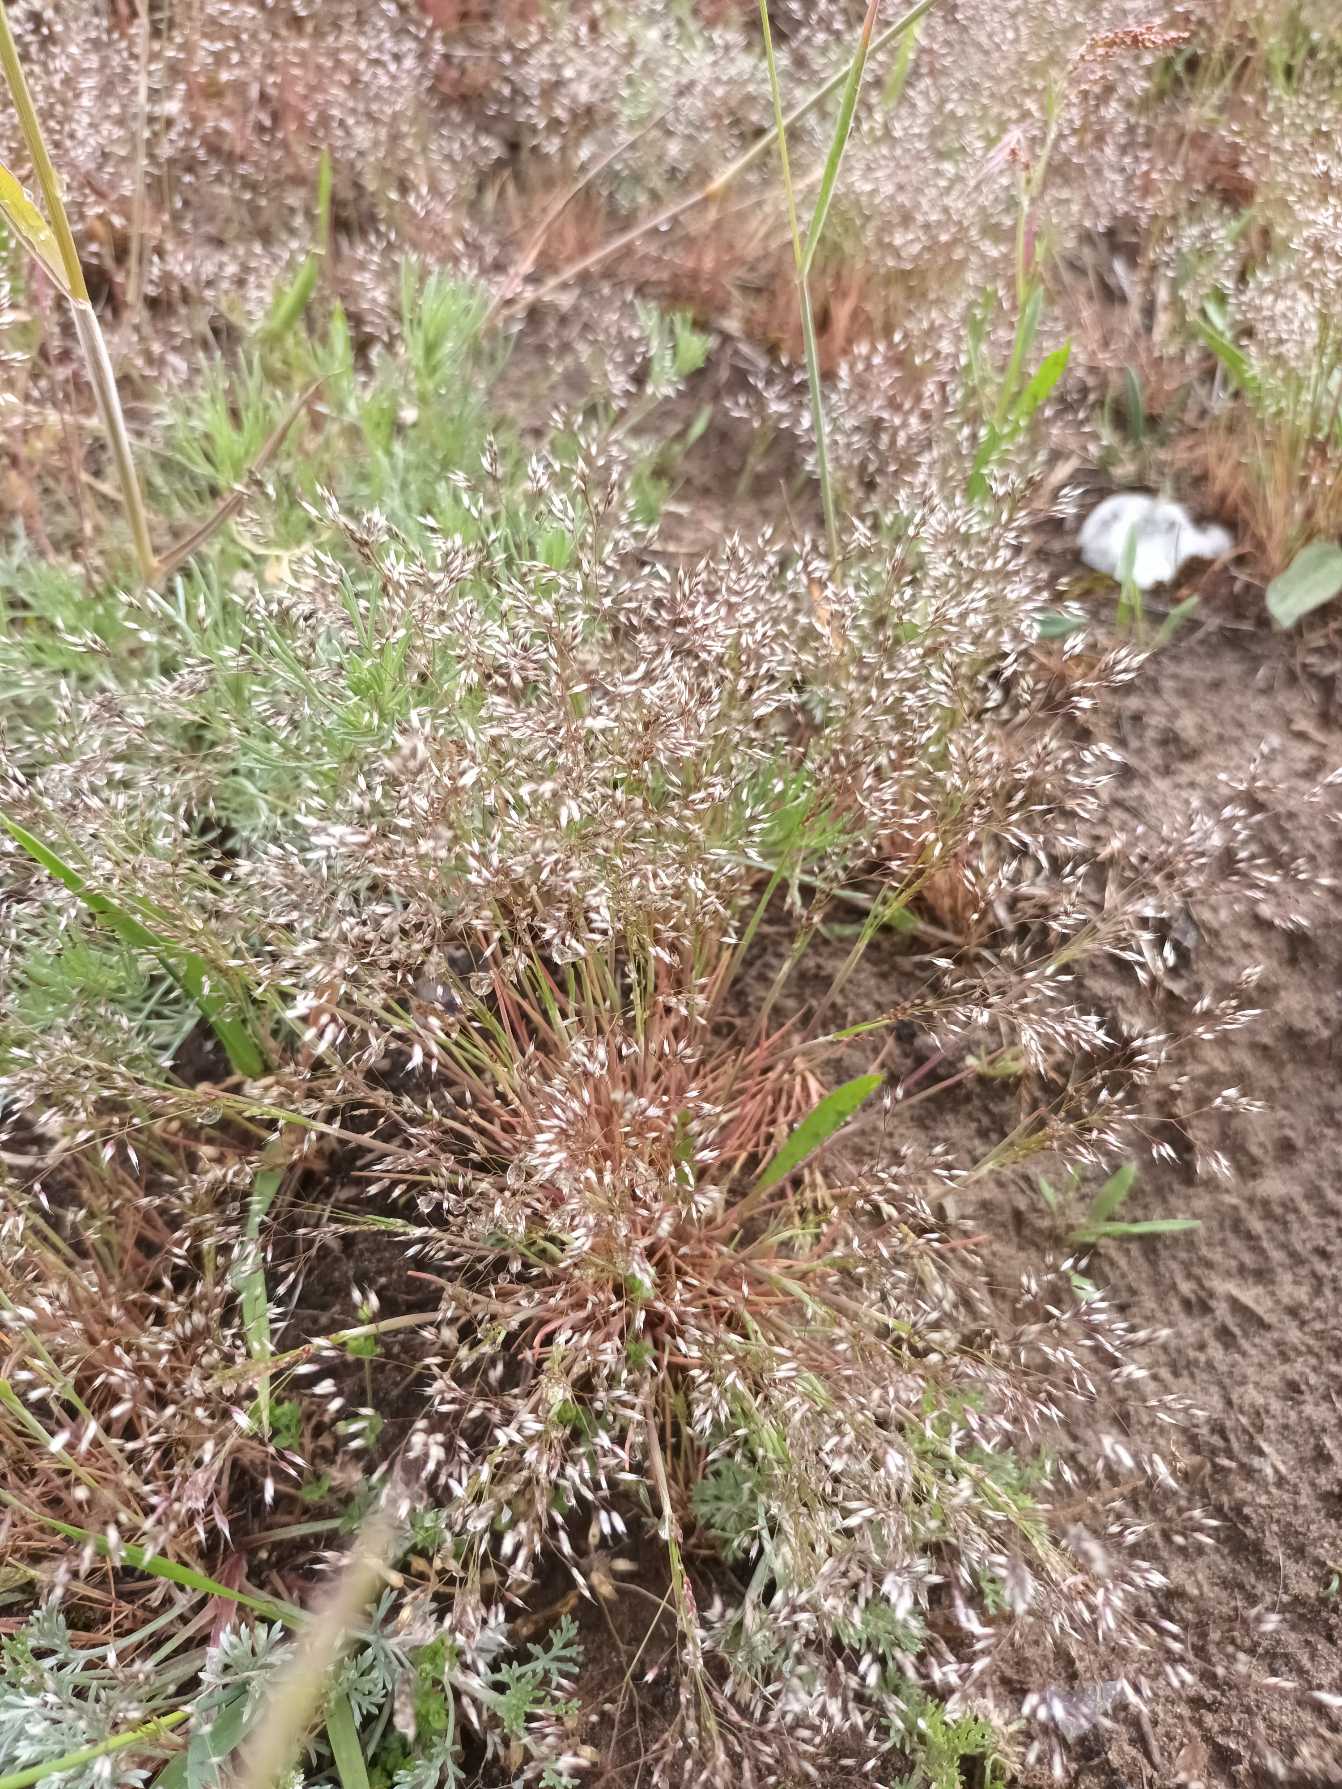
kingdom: Plantae
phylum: Tracheophyta
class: Liliopsida
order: Poales
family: Poaceae
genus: Aira
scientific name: Aira caryophyllea
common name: Udspærret dværgbunke
